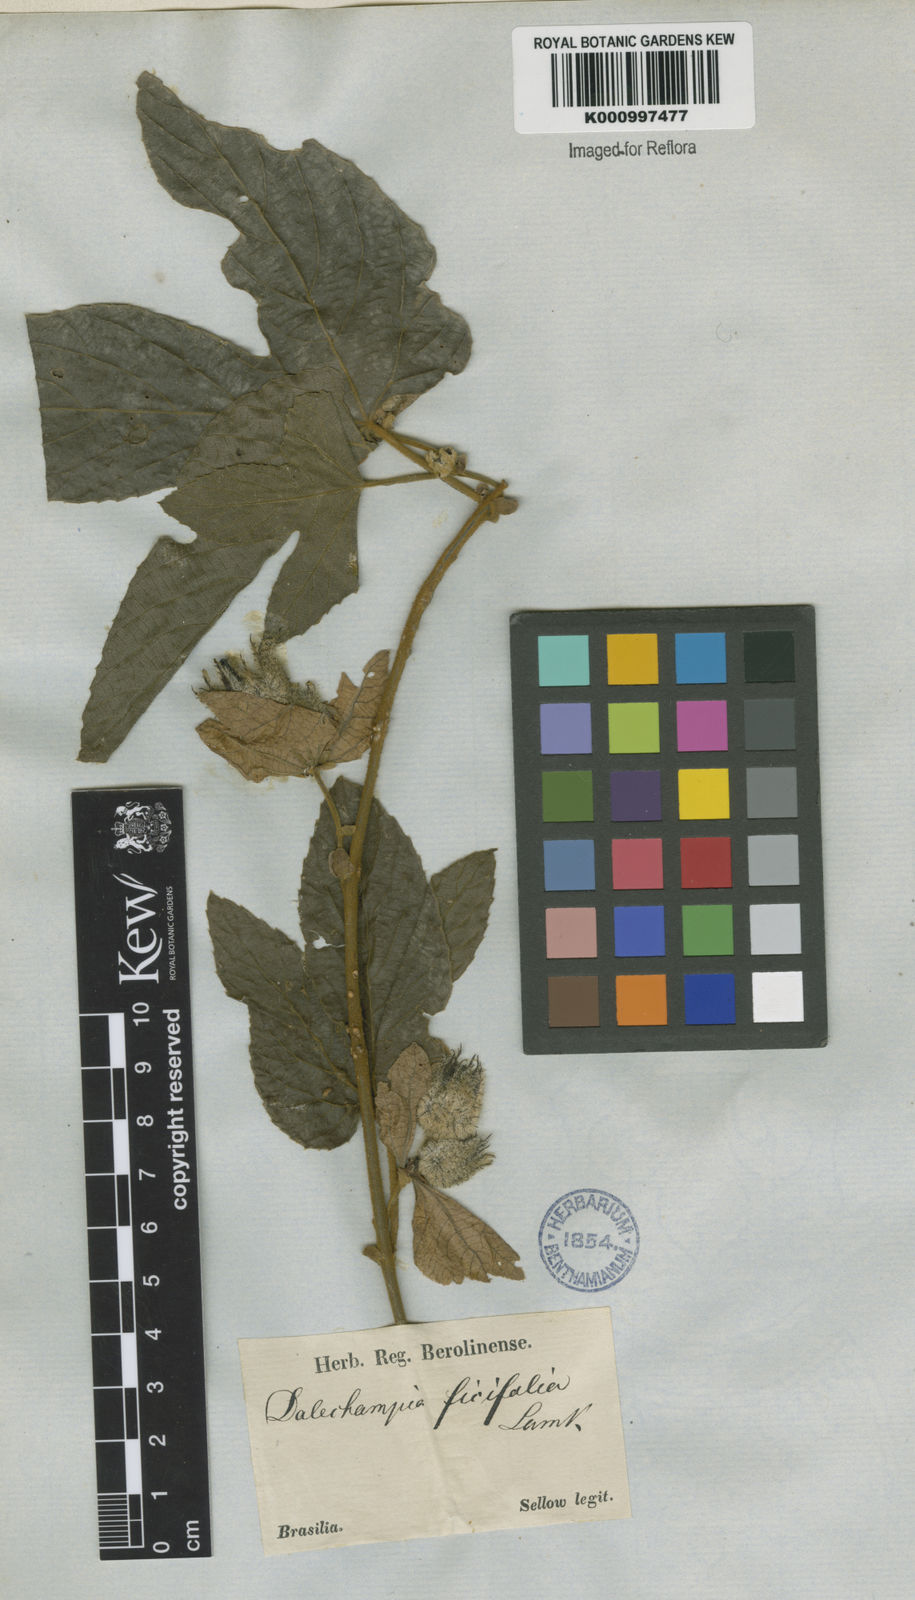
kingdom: Plantae
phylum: Tracheophyta
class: Magnoliopsida
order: Malpighiales
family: Euphorbiaceae
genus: Dalechampia
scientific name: Dalechampia ficifolia
